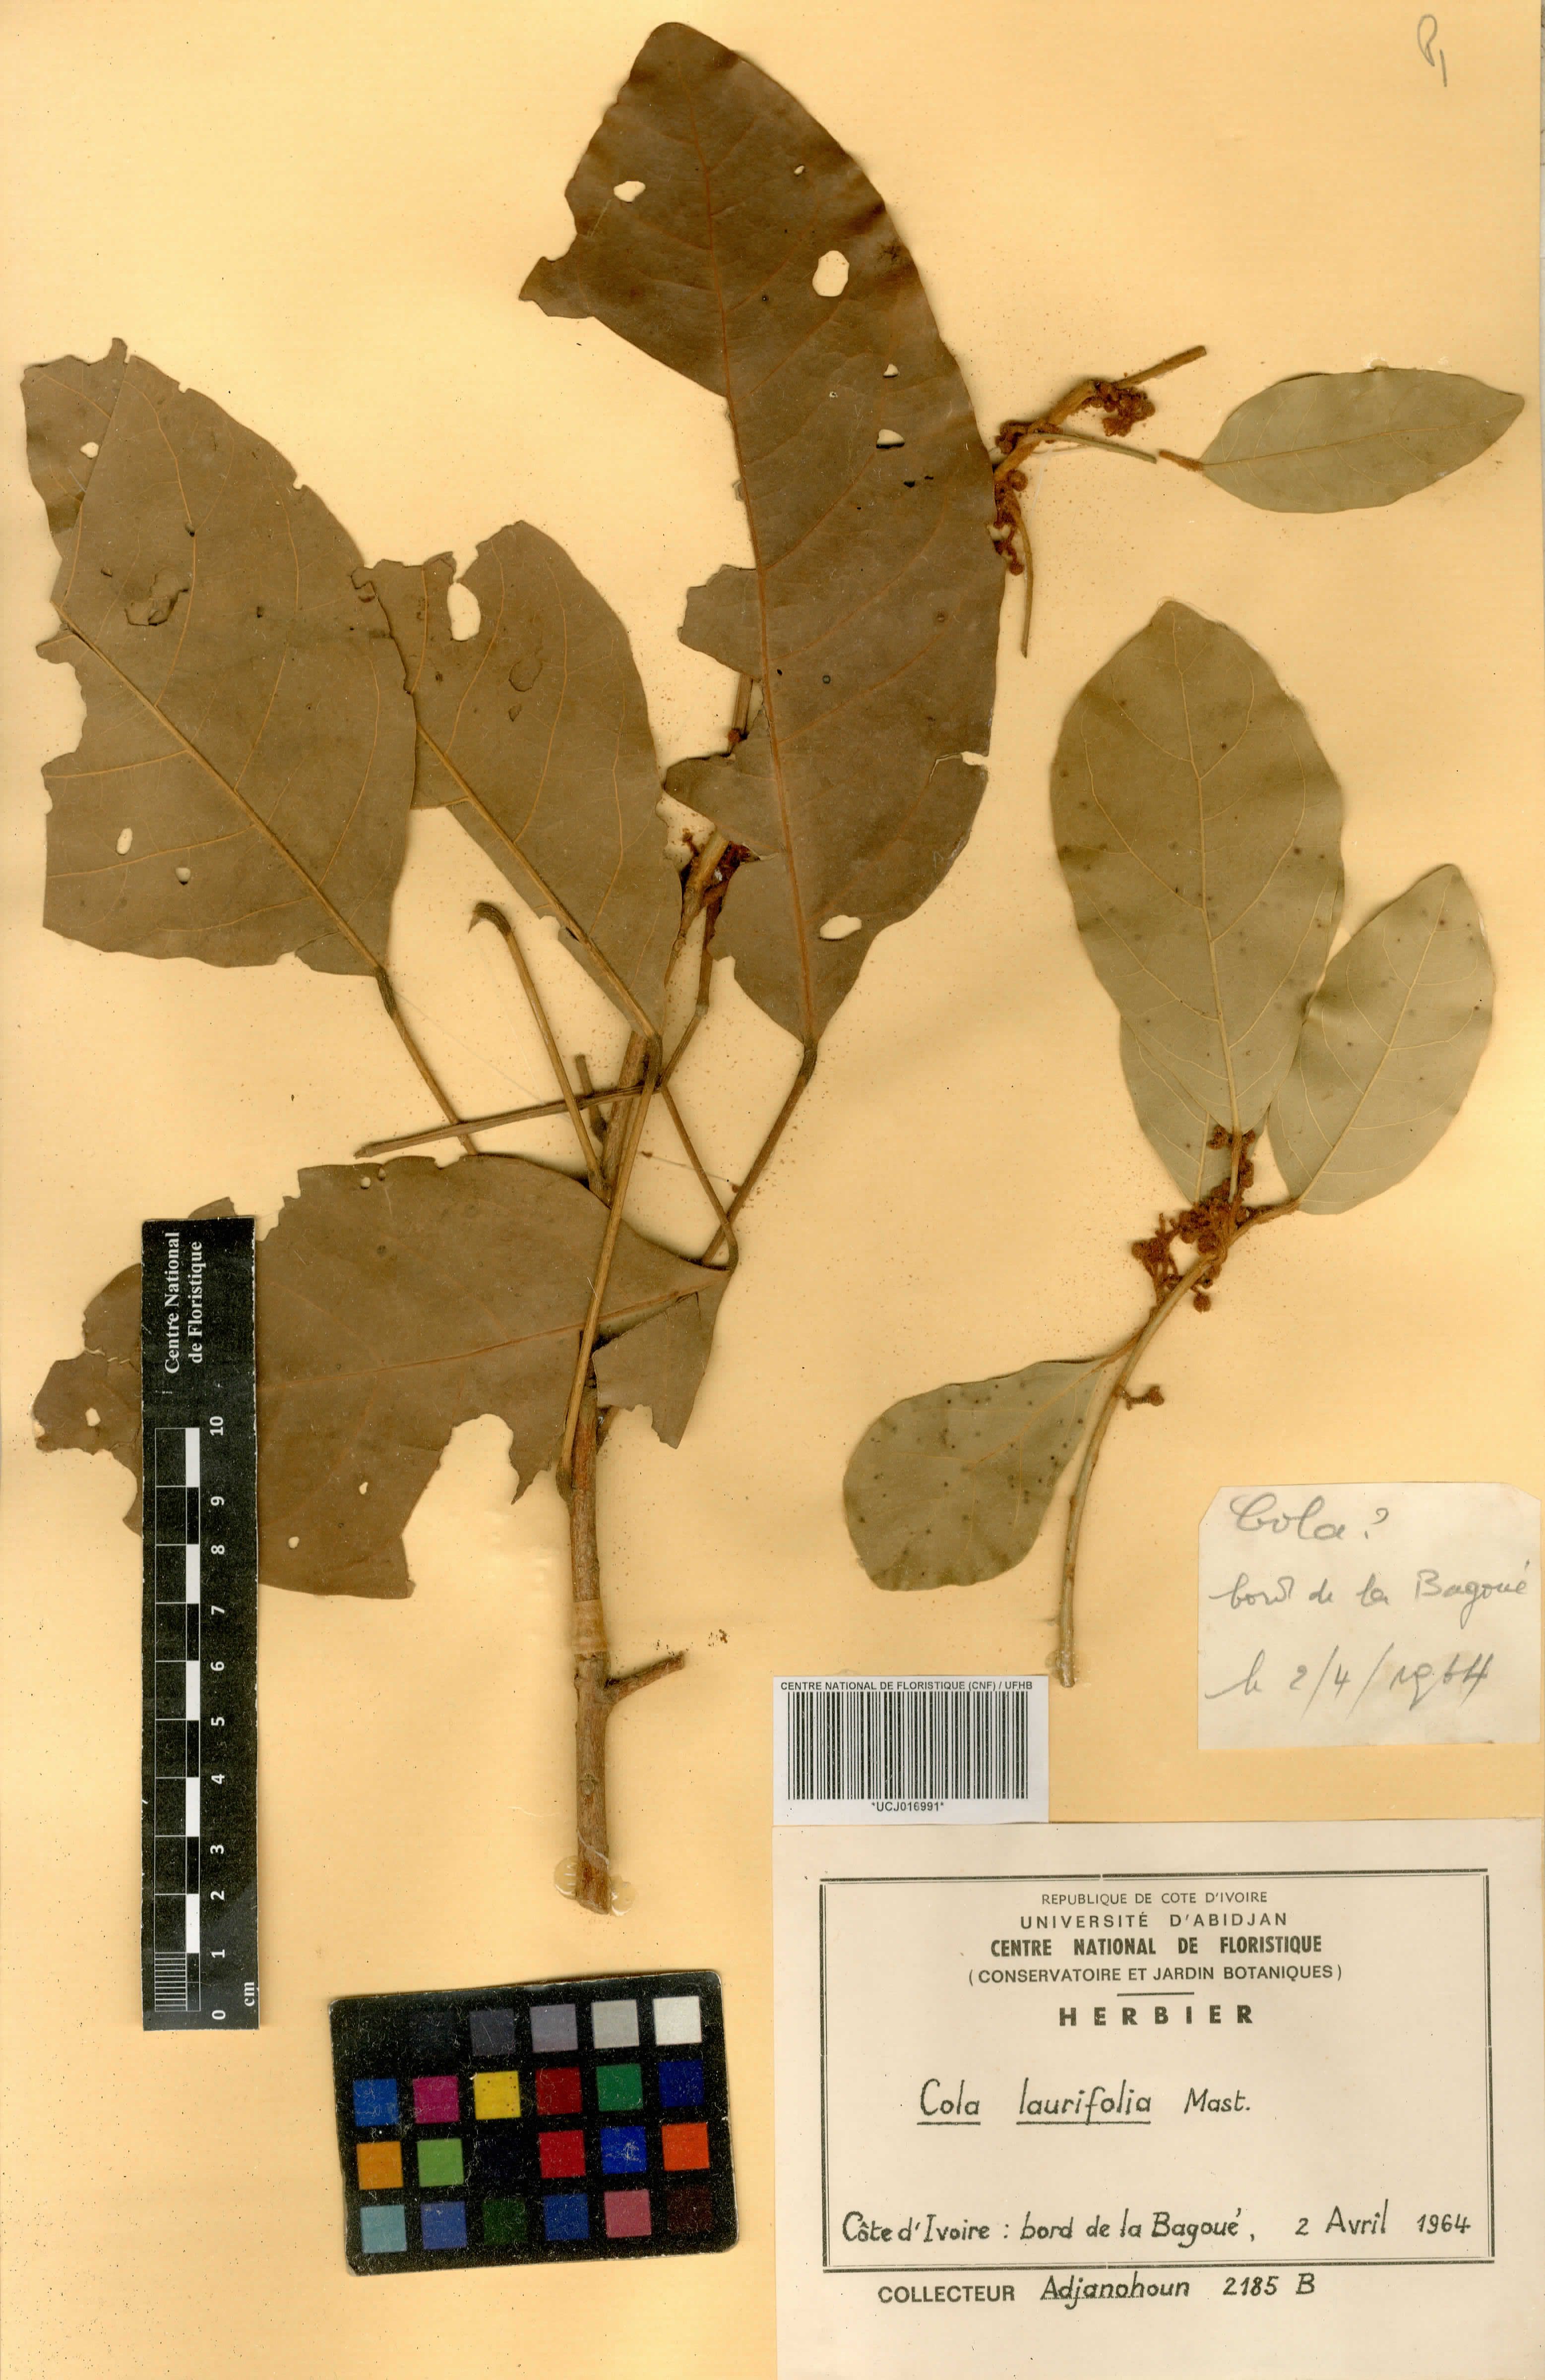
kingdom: Plantae
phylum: Tracheophyta
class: Magnoliopsida
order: Malvales
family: Malvaceae
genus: Cola
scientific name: Cola laurifolia
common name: Laurel-leaved kola
